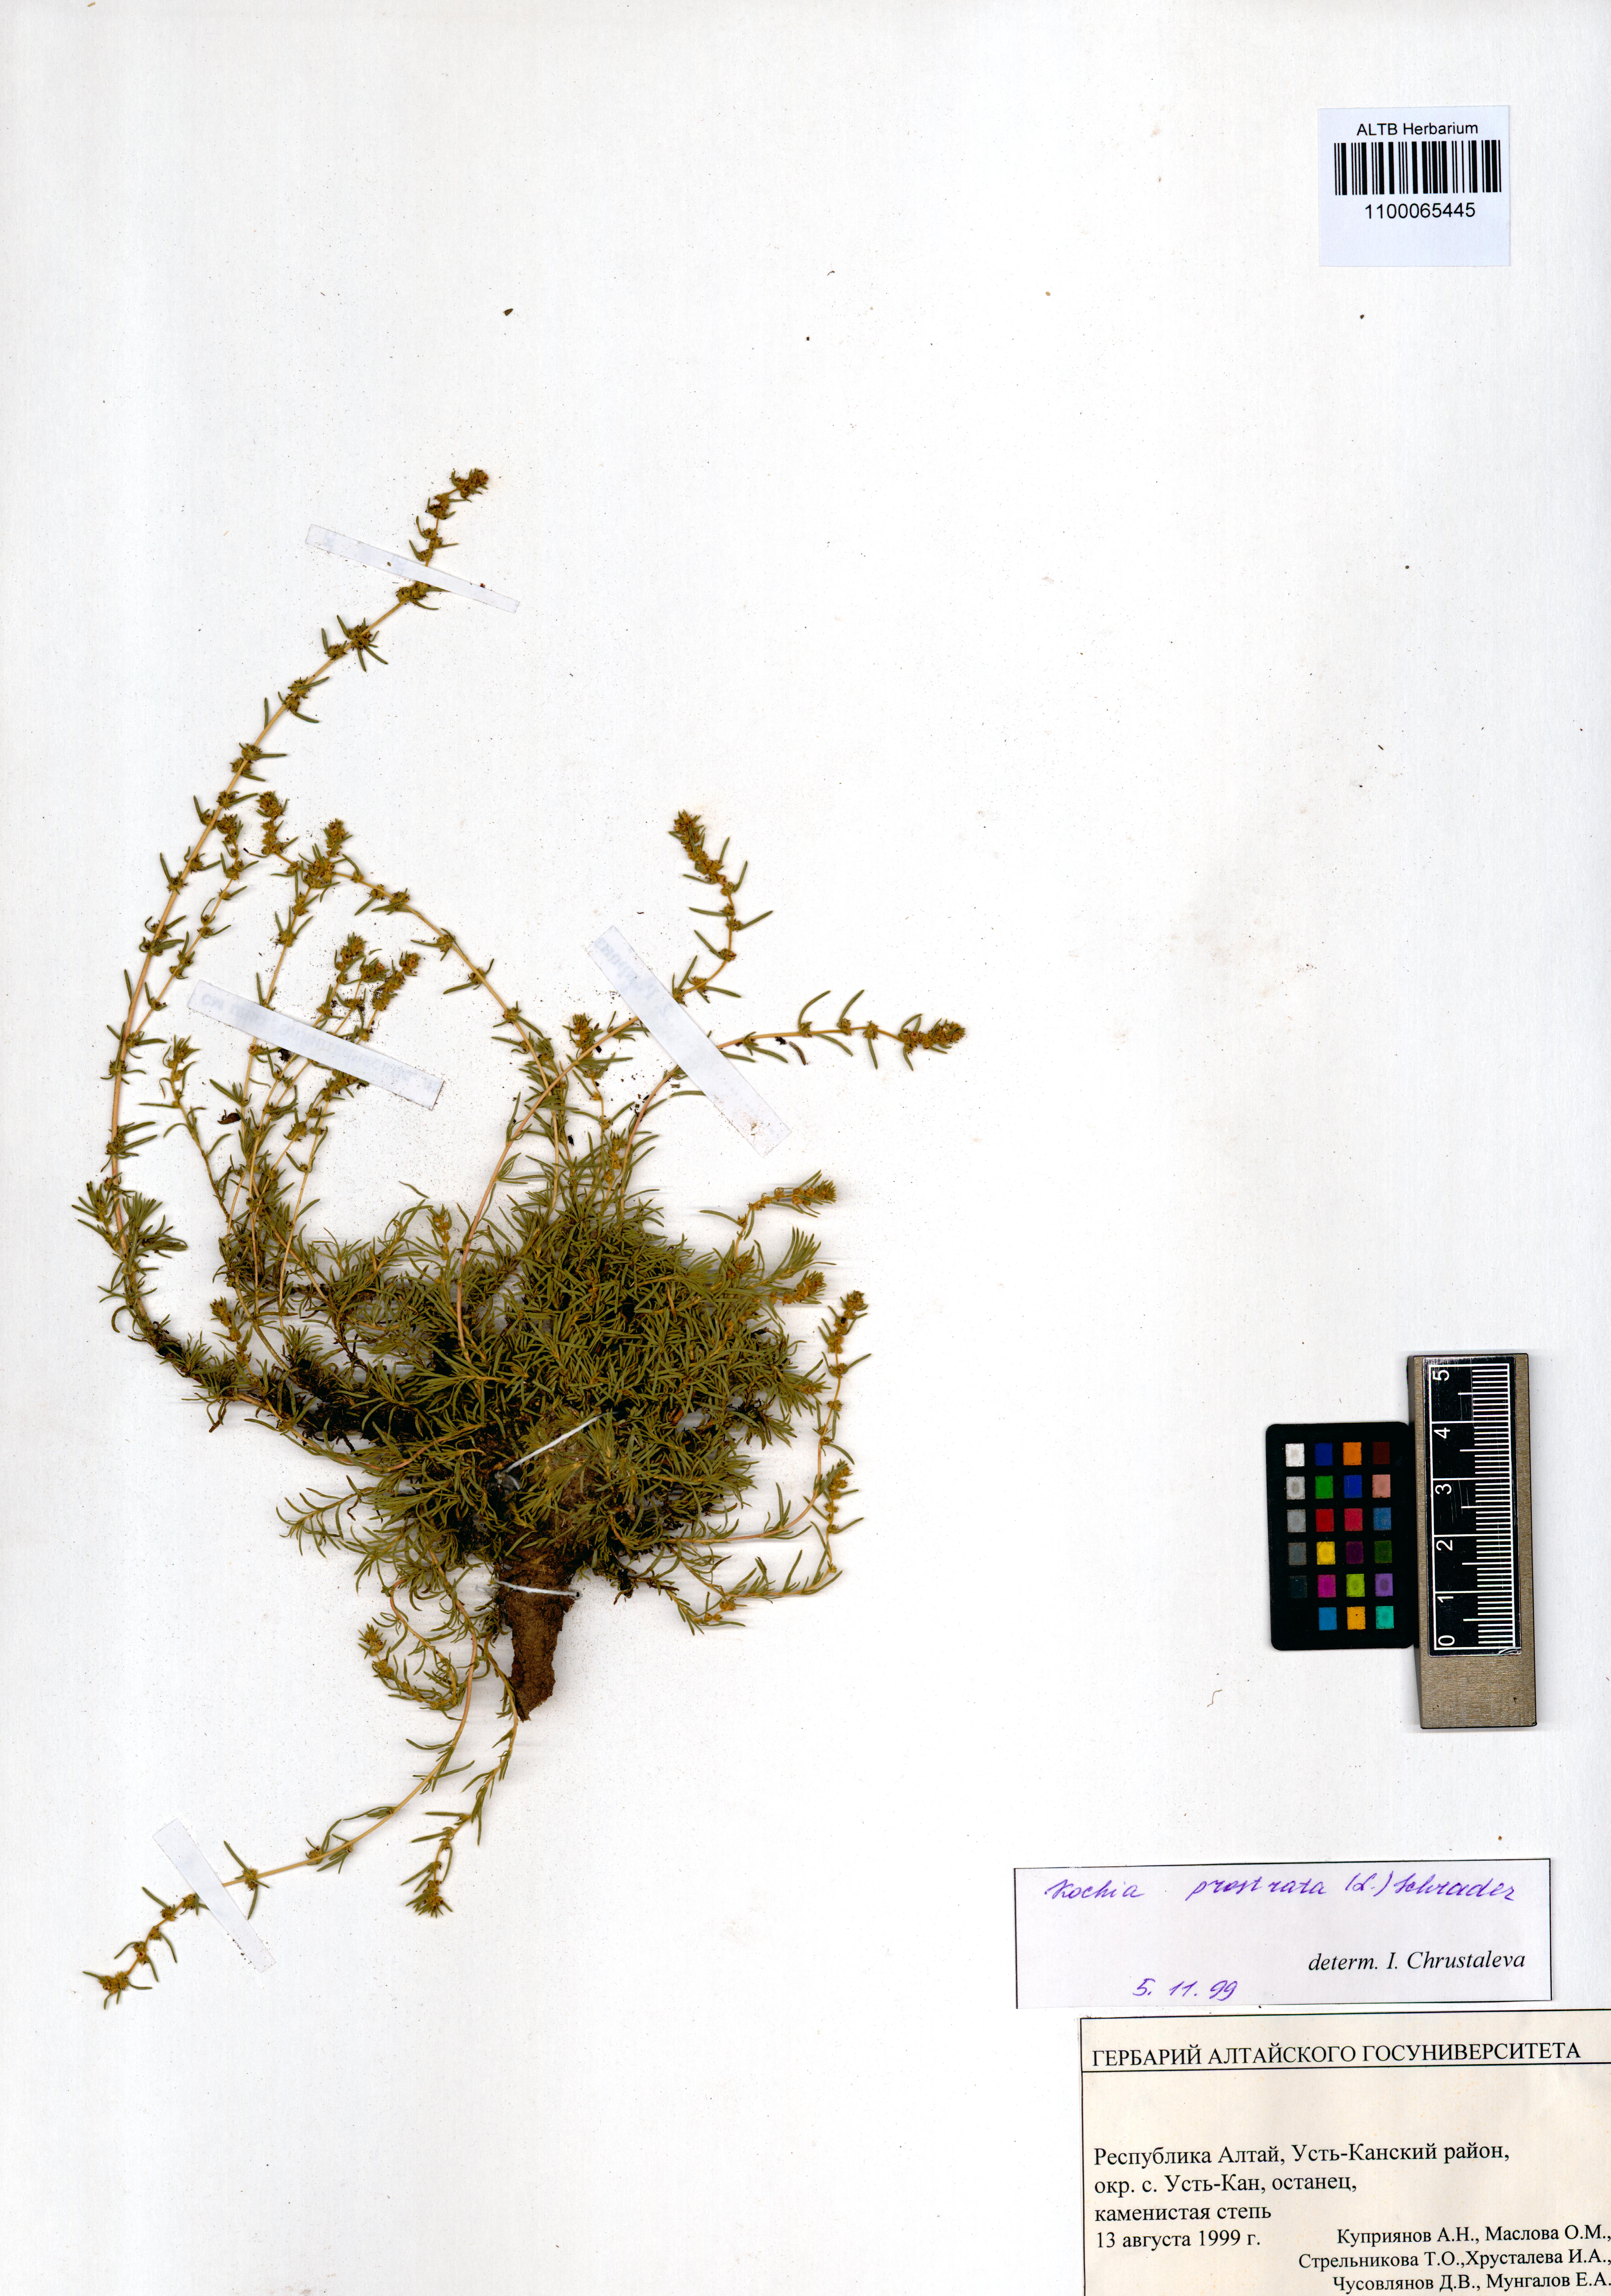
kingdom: Plantae
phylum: Tracheophyta
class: Magnoliopsida
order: Caryophyllales
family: Amaranthaceae
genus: Bassia
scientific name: Bassia prostrata
